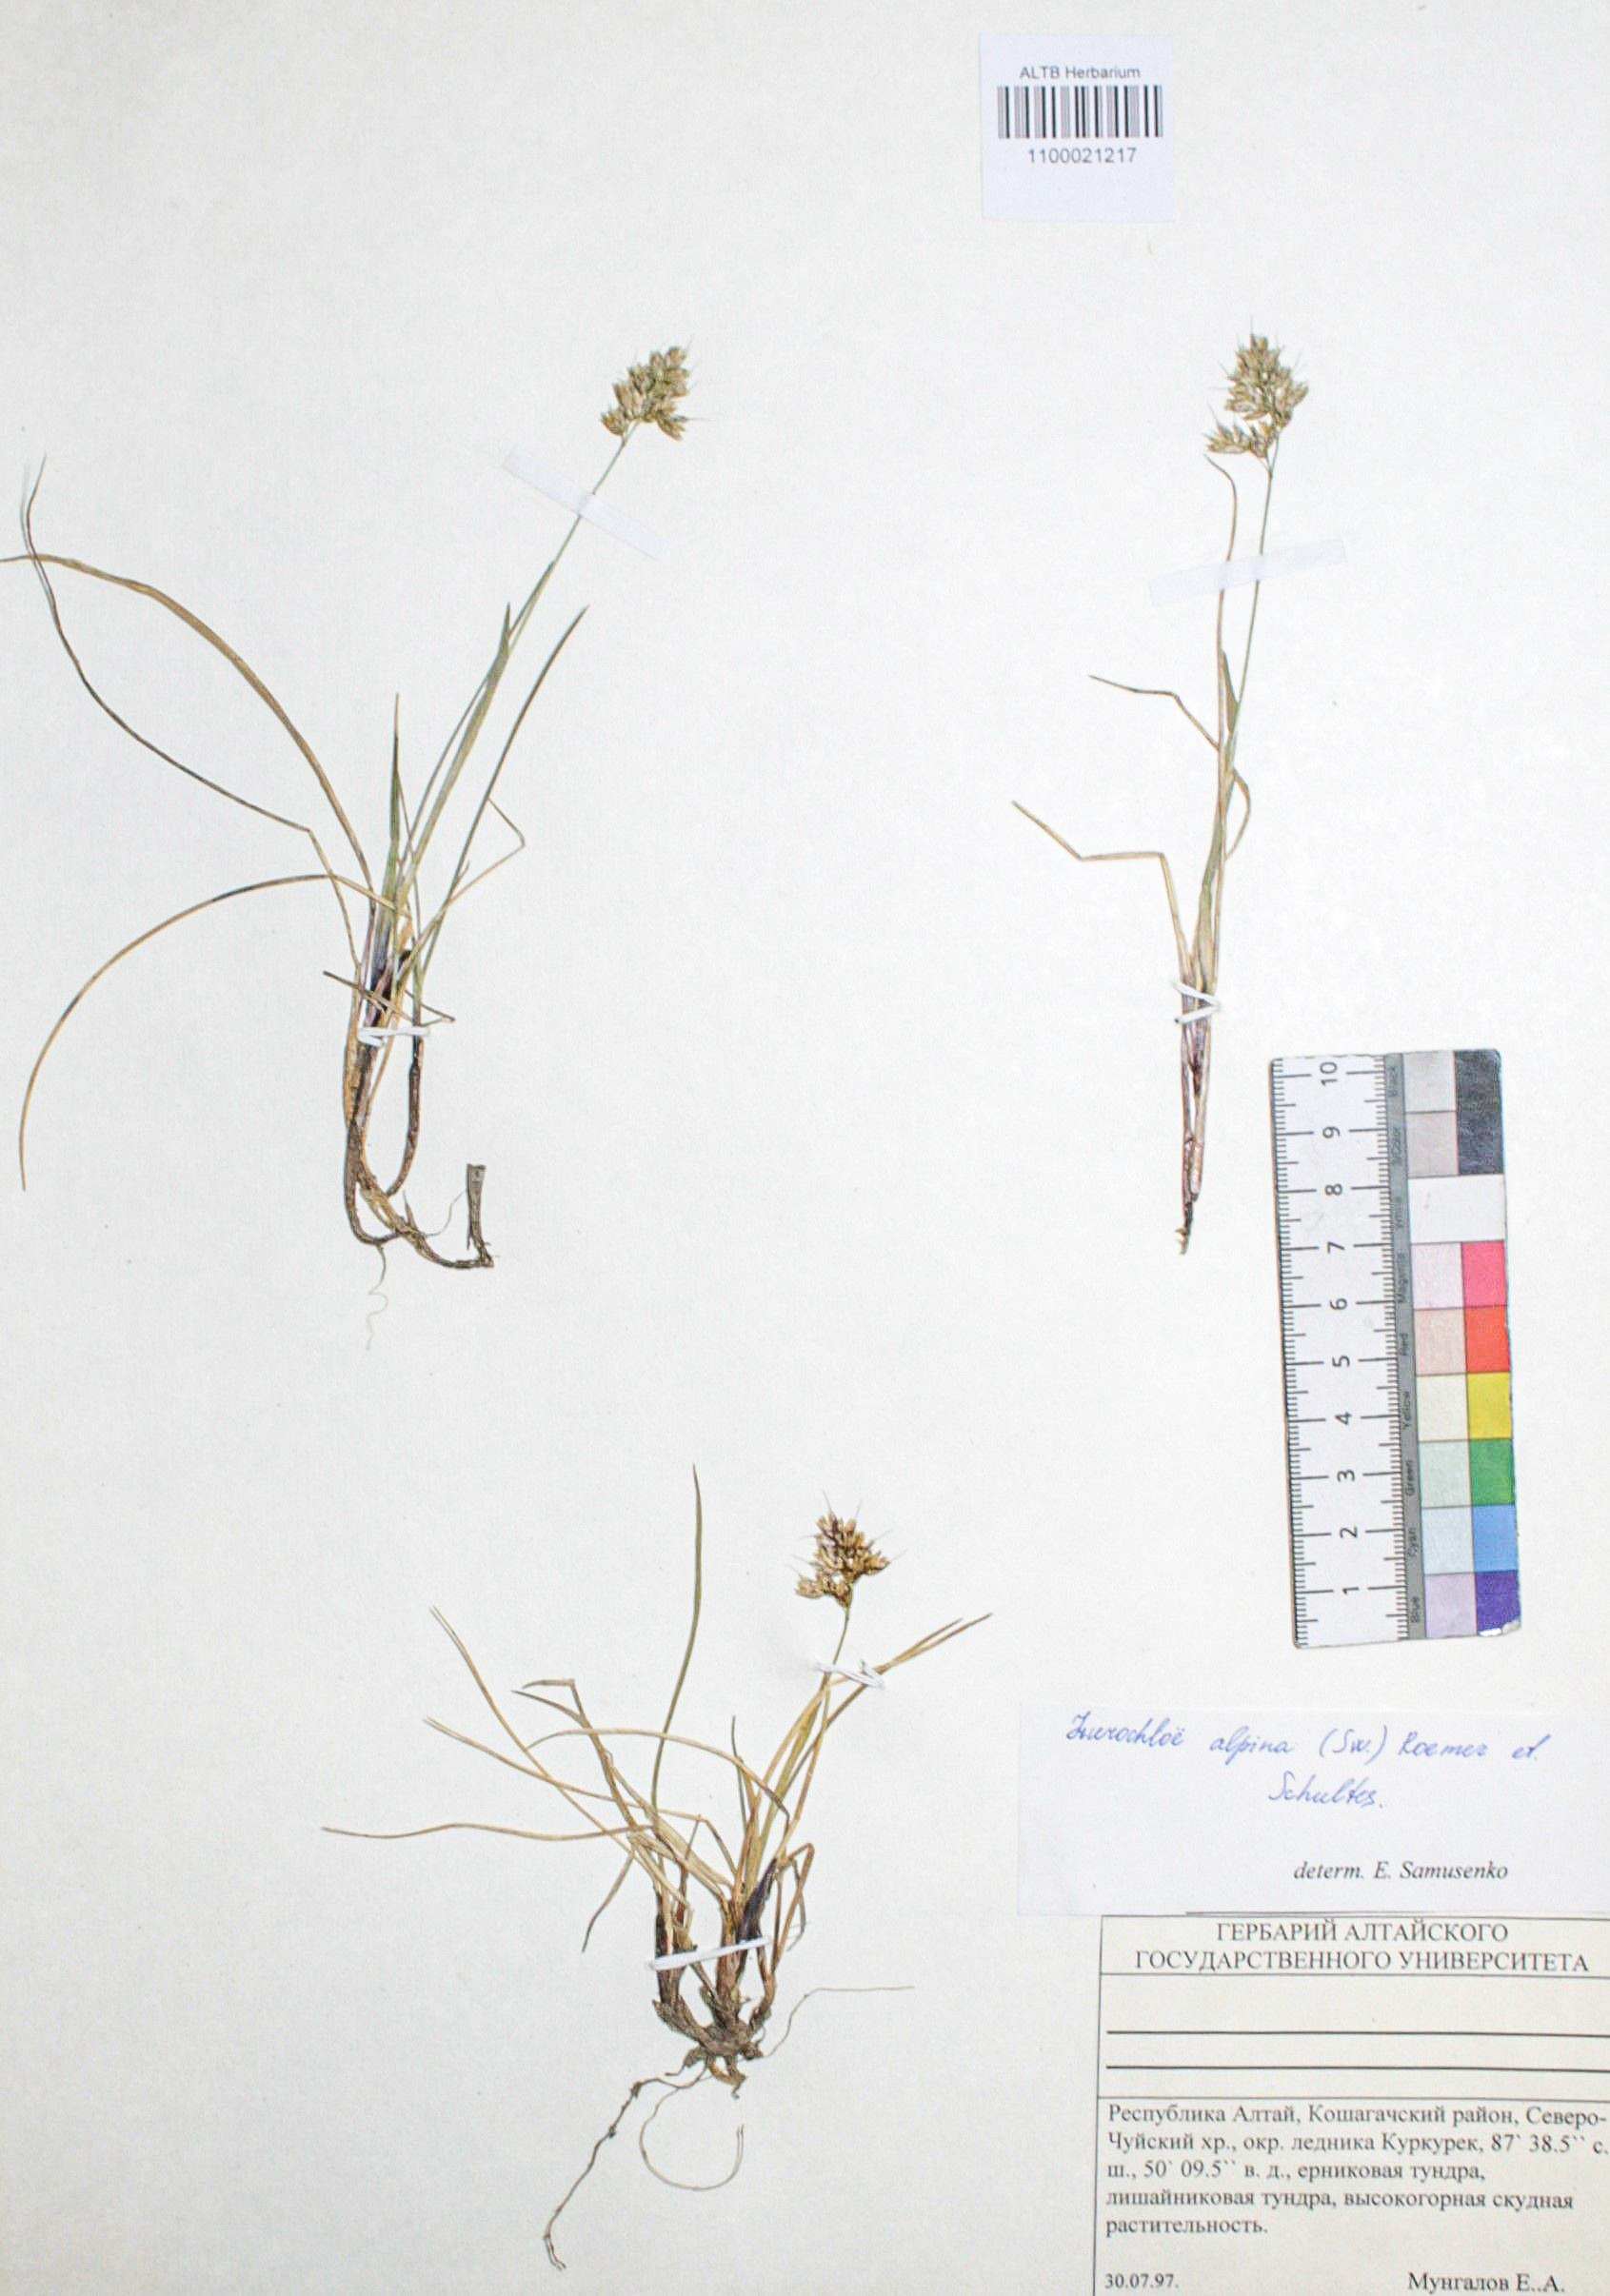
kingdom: Plantae
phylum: Tracheophyta
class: Liliopsida
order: Poales
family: Poaceae
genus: Anthoxanthum
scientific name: Anthoxanthum monticola
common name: Alpine sweetgrass
